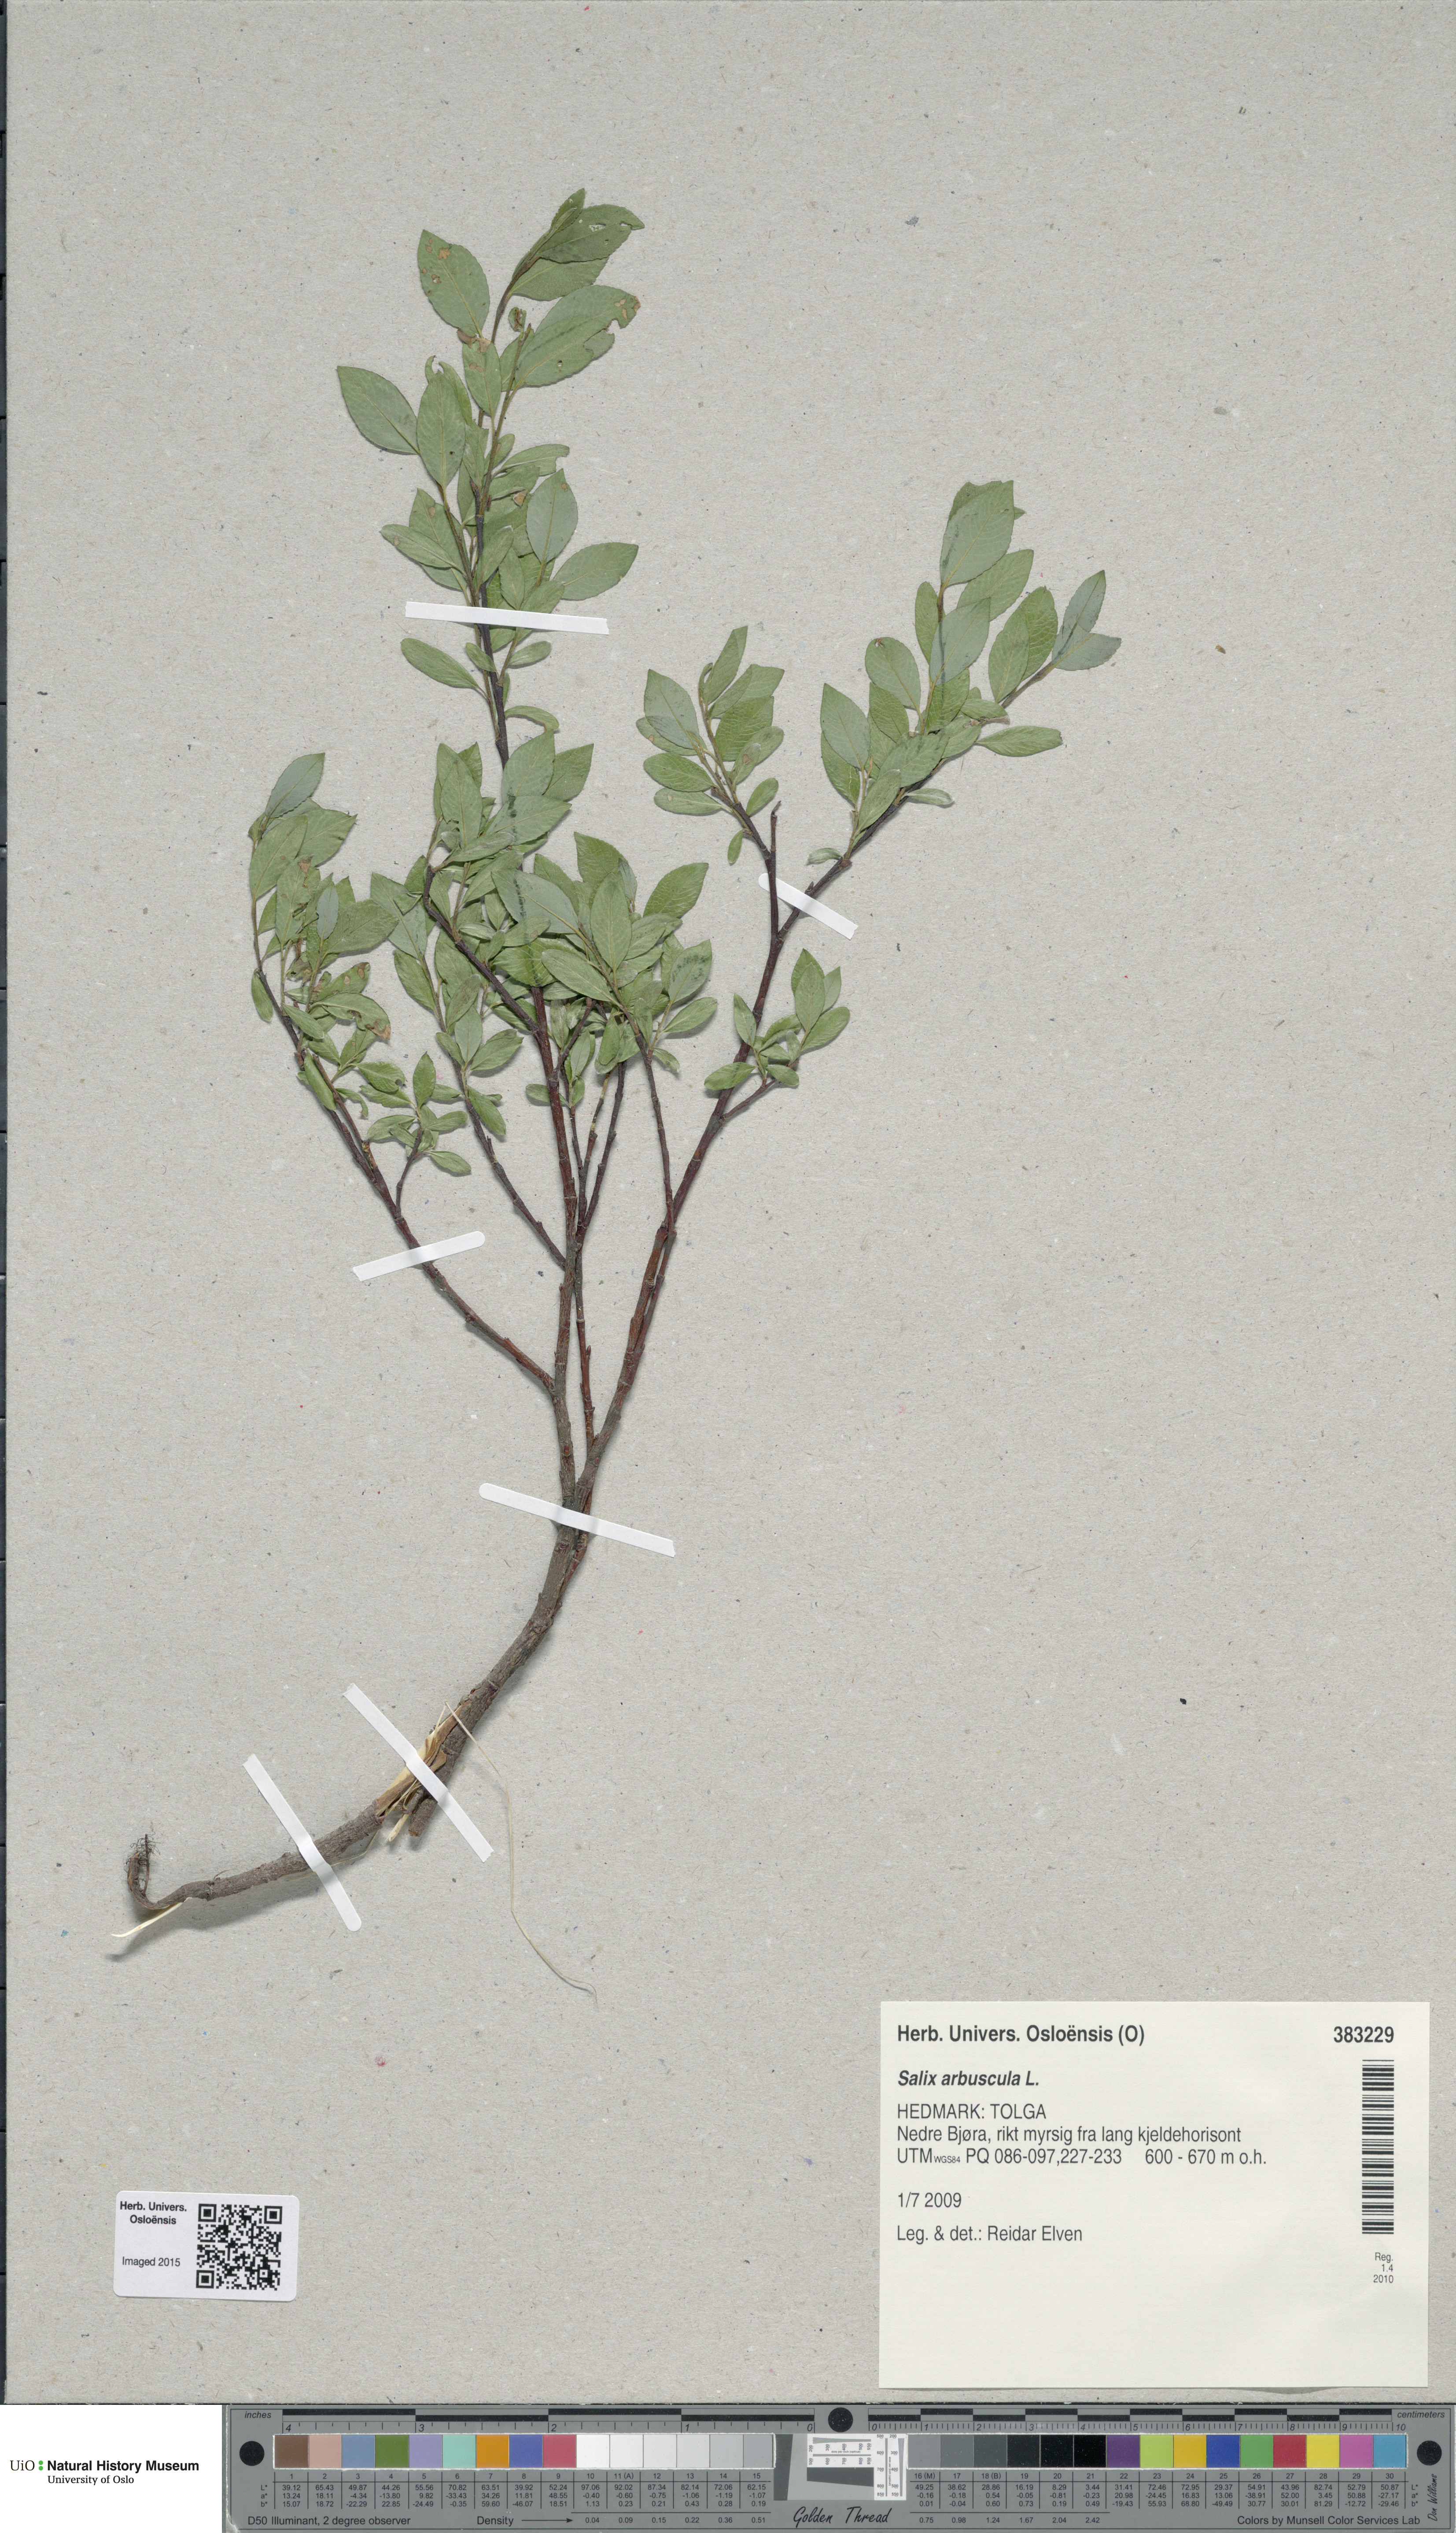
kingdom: Plantae
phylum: Tracheophyta
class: Magnoliopsida
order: Malpighiales
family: Salicaceae
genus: Salix
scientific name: Salix arbuscula
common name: Mountain willow
